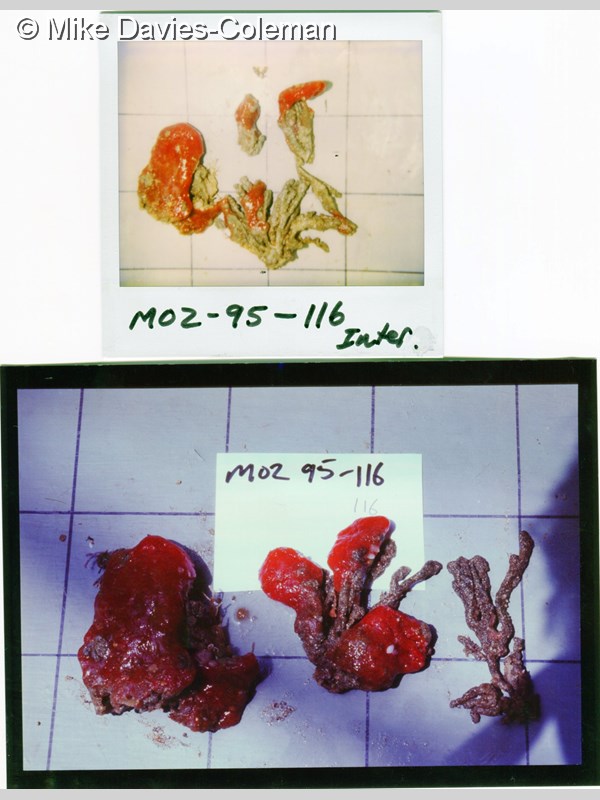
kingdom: Animalia
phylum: Chordata
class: Ascidiacea
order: Aplousobranchia
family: Euherdmaniidae
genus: Euherdmania
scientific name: Euherdmania divida
